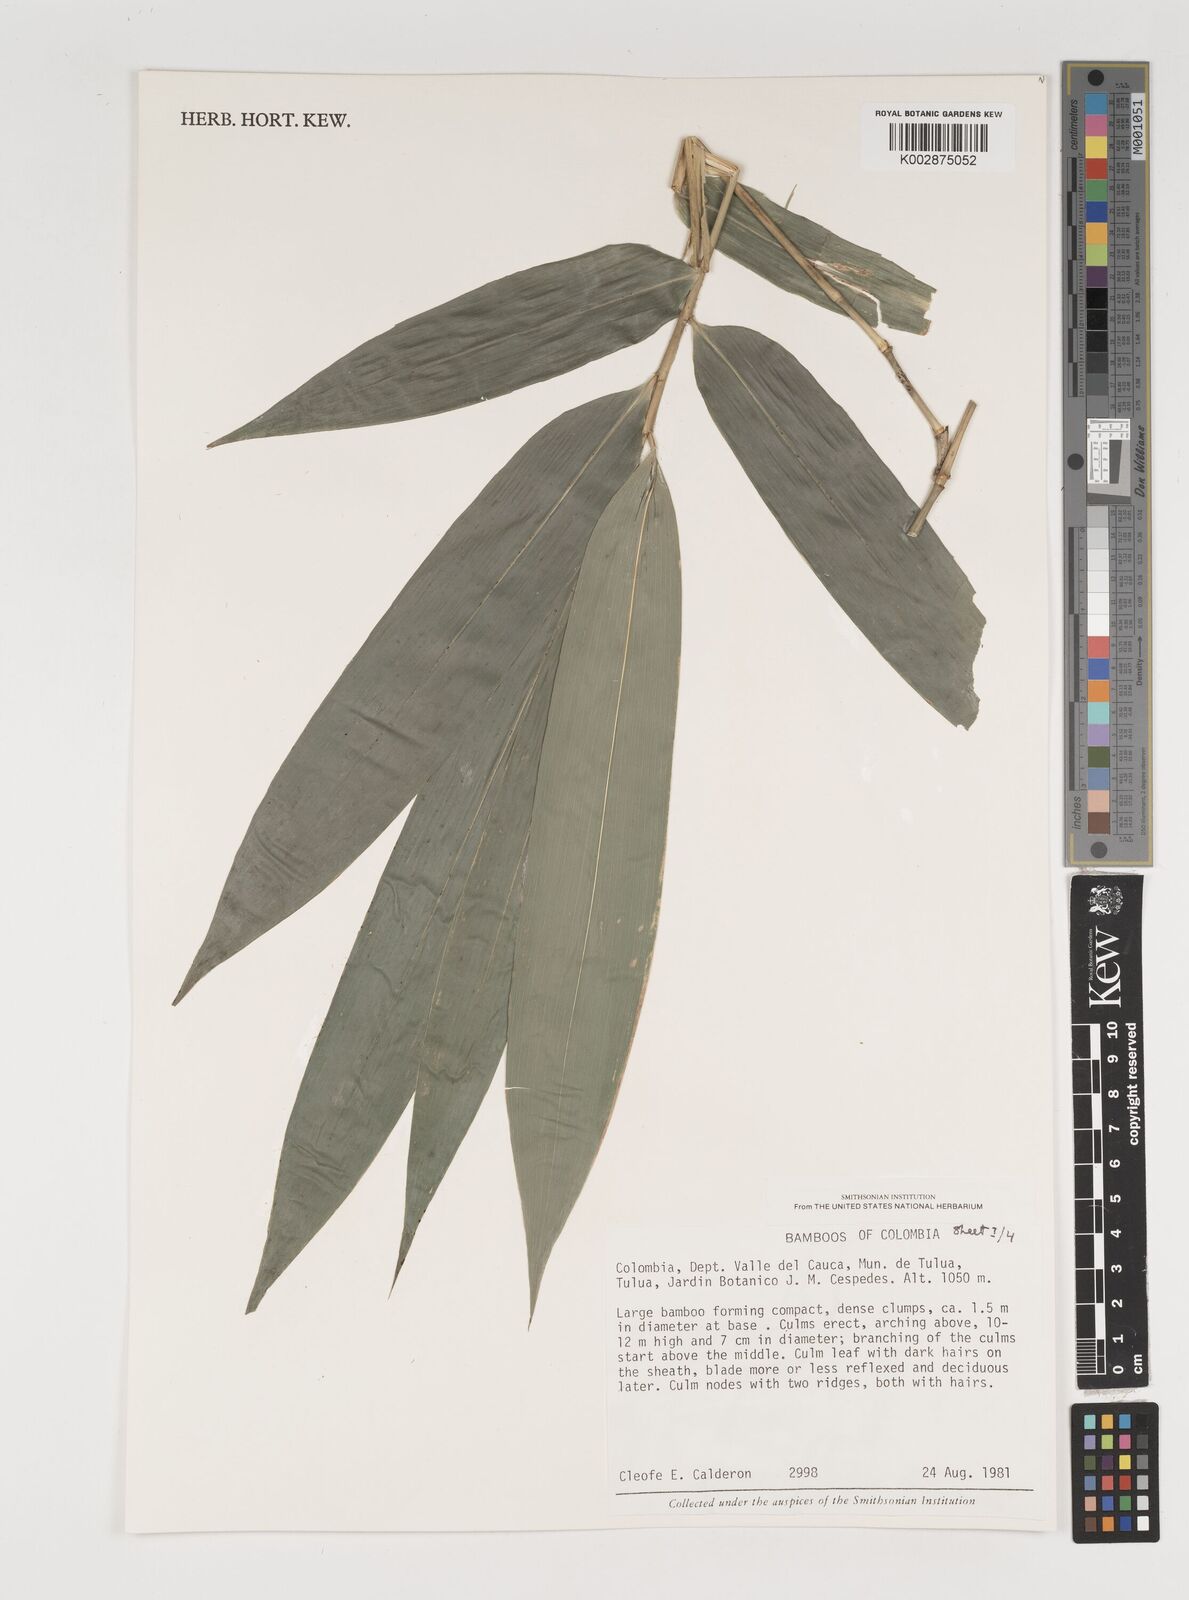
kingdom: Plantae
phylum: Tracheophyta
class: Liliopsida
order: Poales
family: Poaceae
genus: Gigantochloa
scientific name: Gigantochloa
